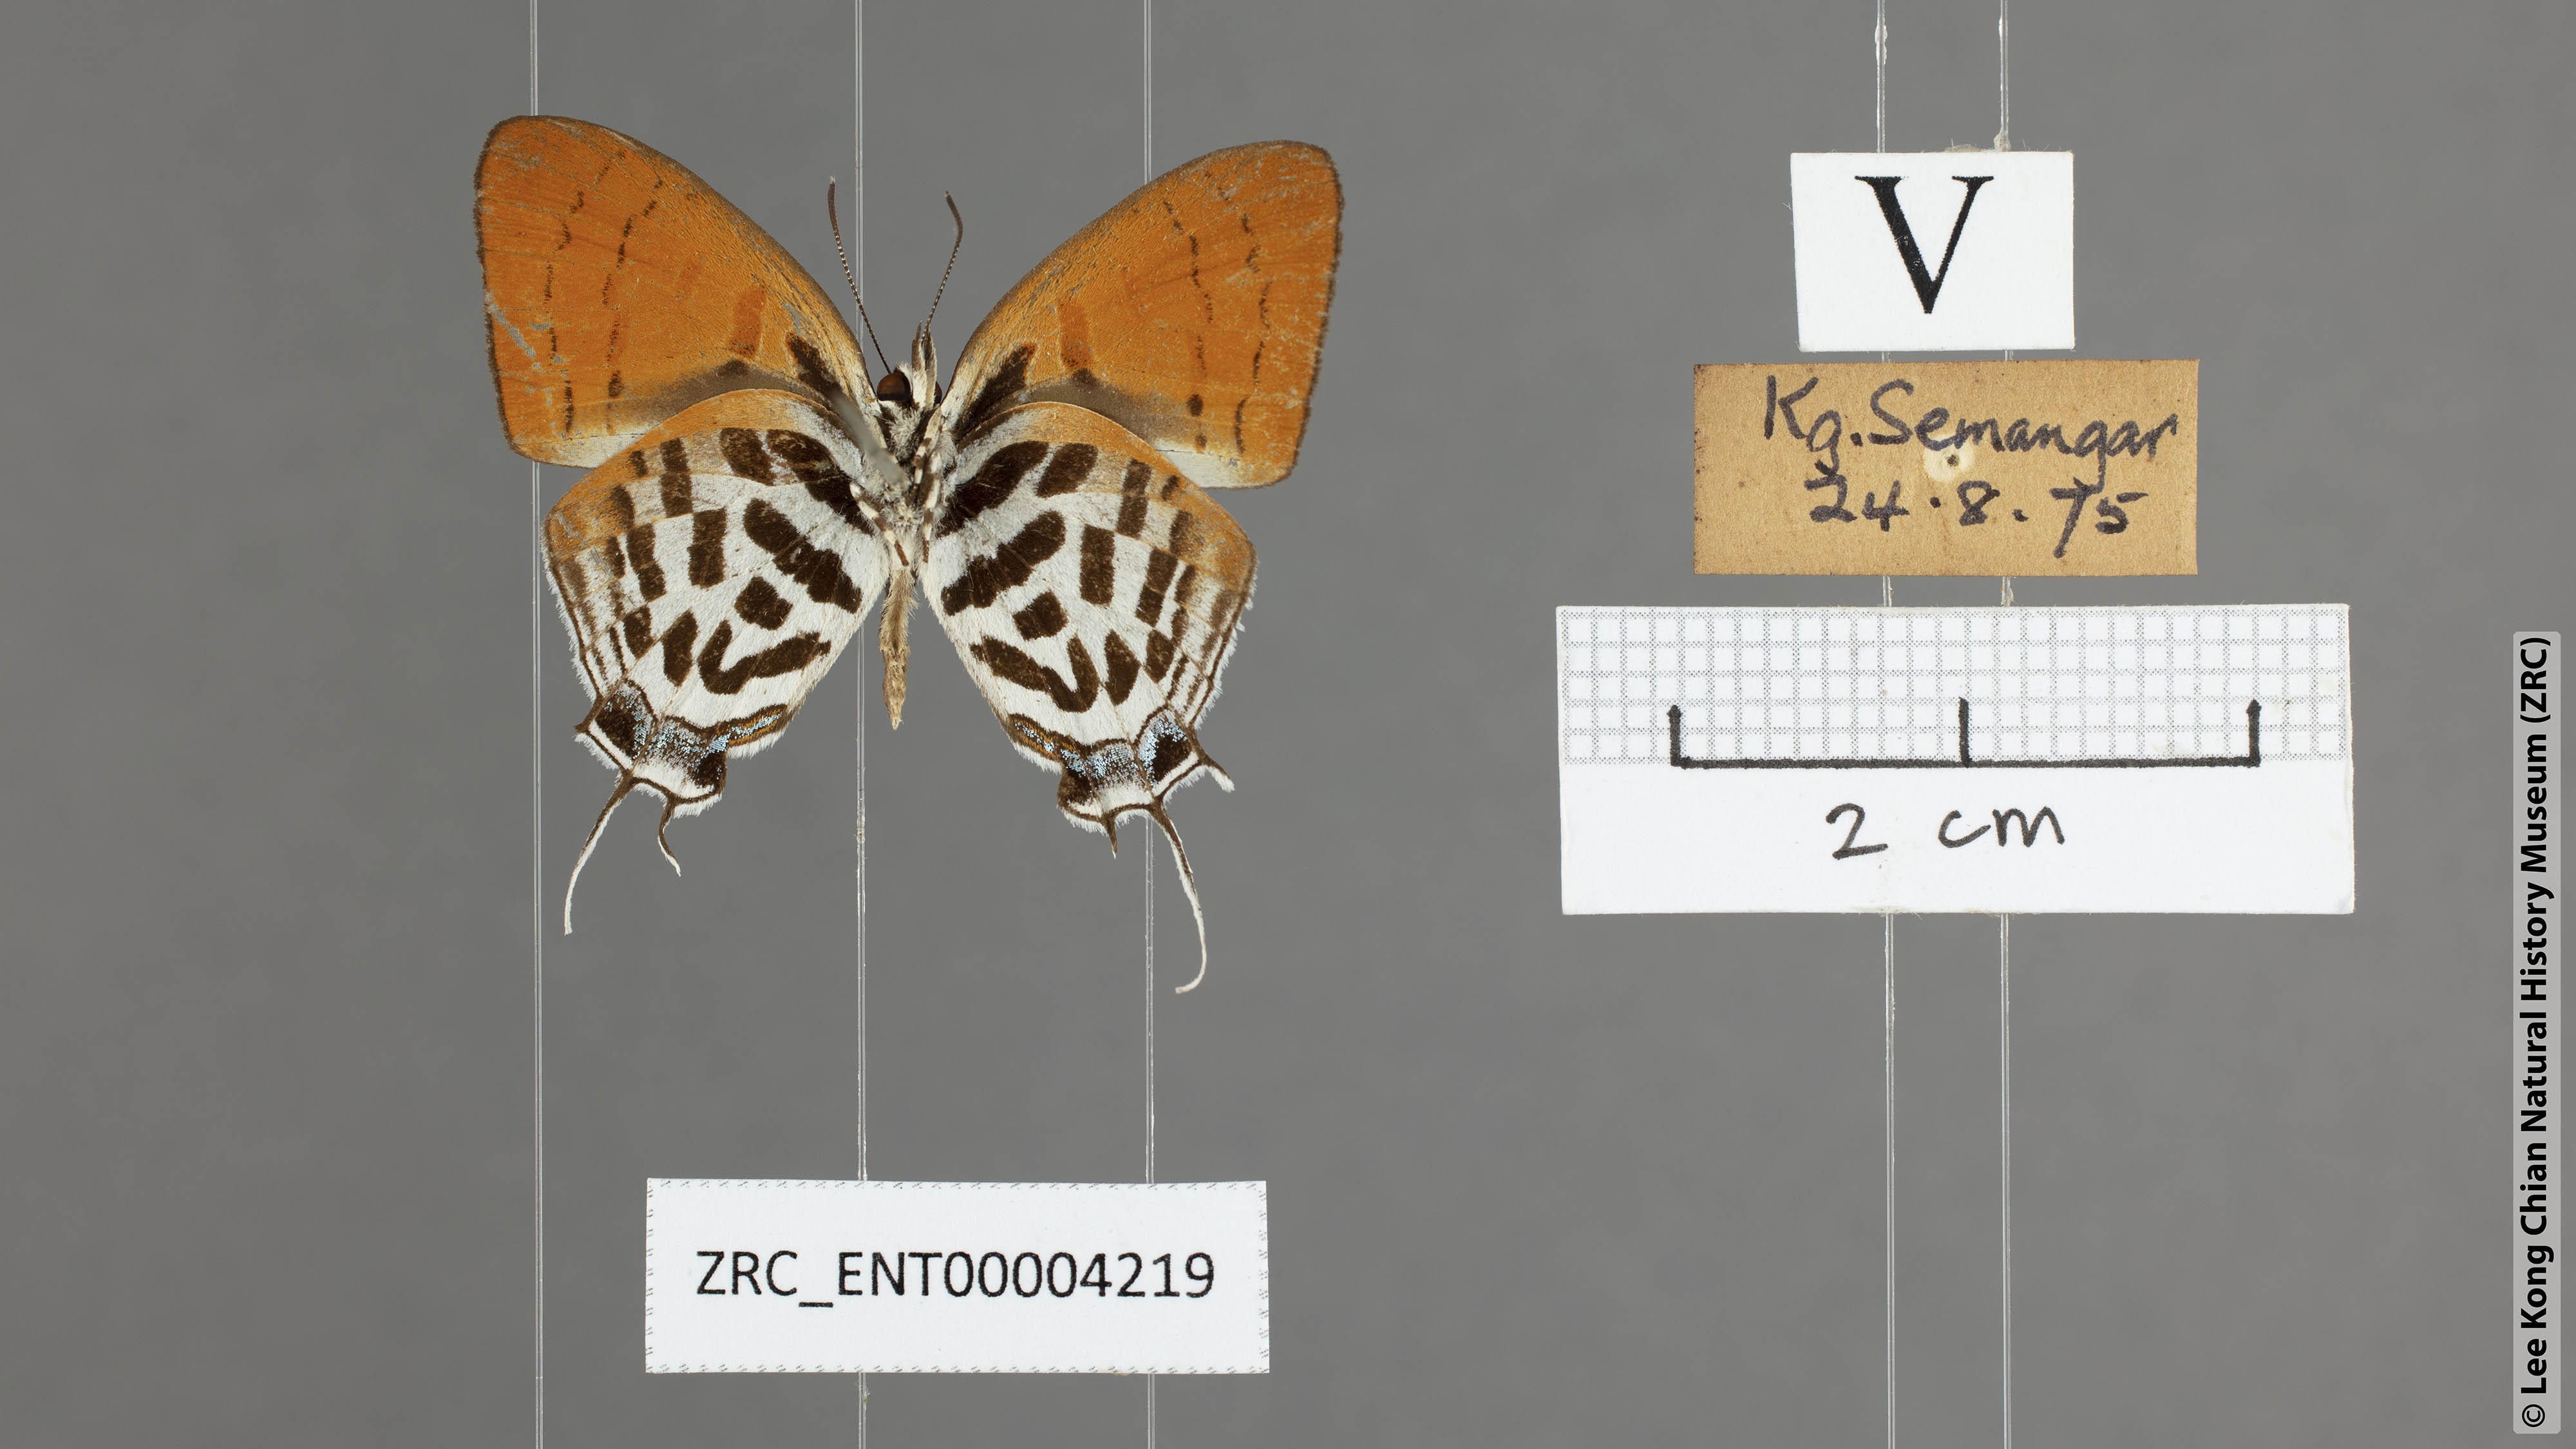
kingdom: Animalia
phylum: Arthropoda
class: Insecta
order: Lepidoptera
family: Lycaenidae
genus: Drupadia
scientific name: Drupadia ravindra
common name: Common posy
